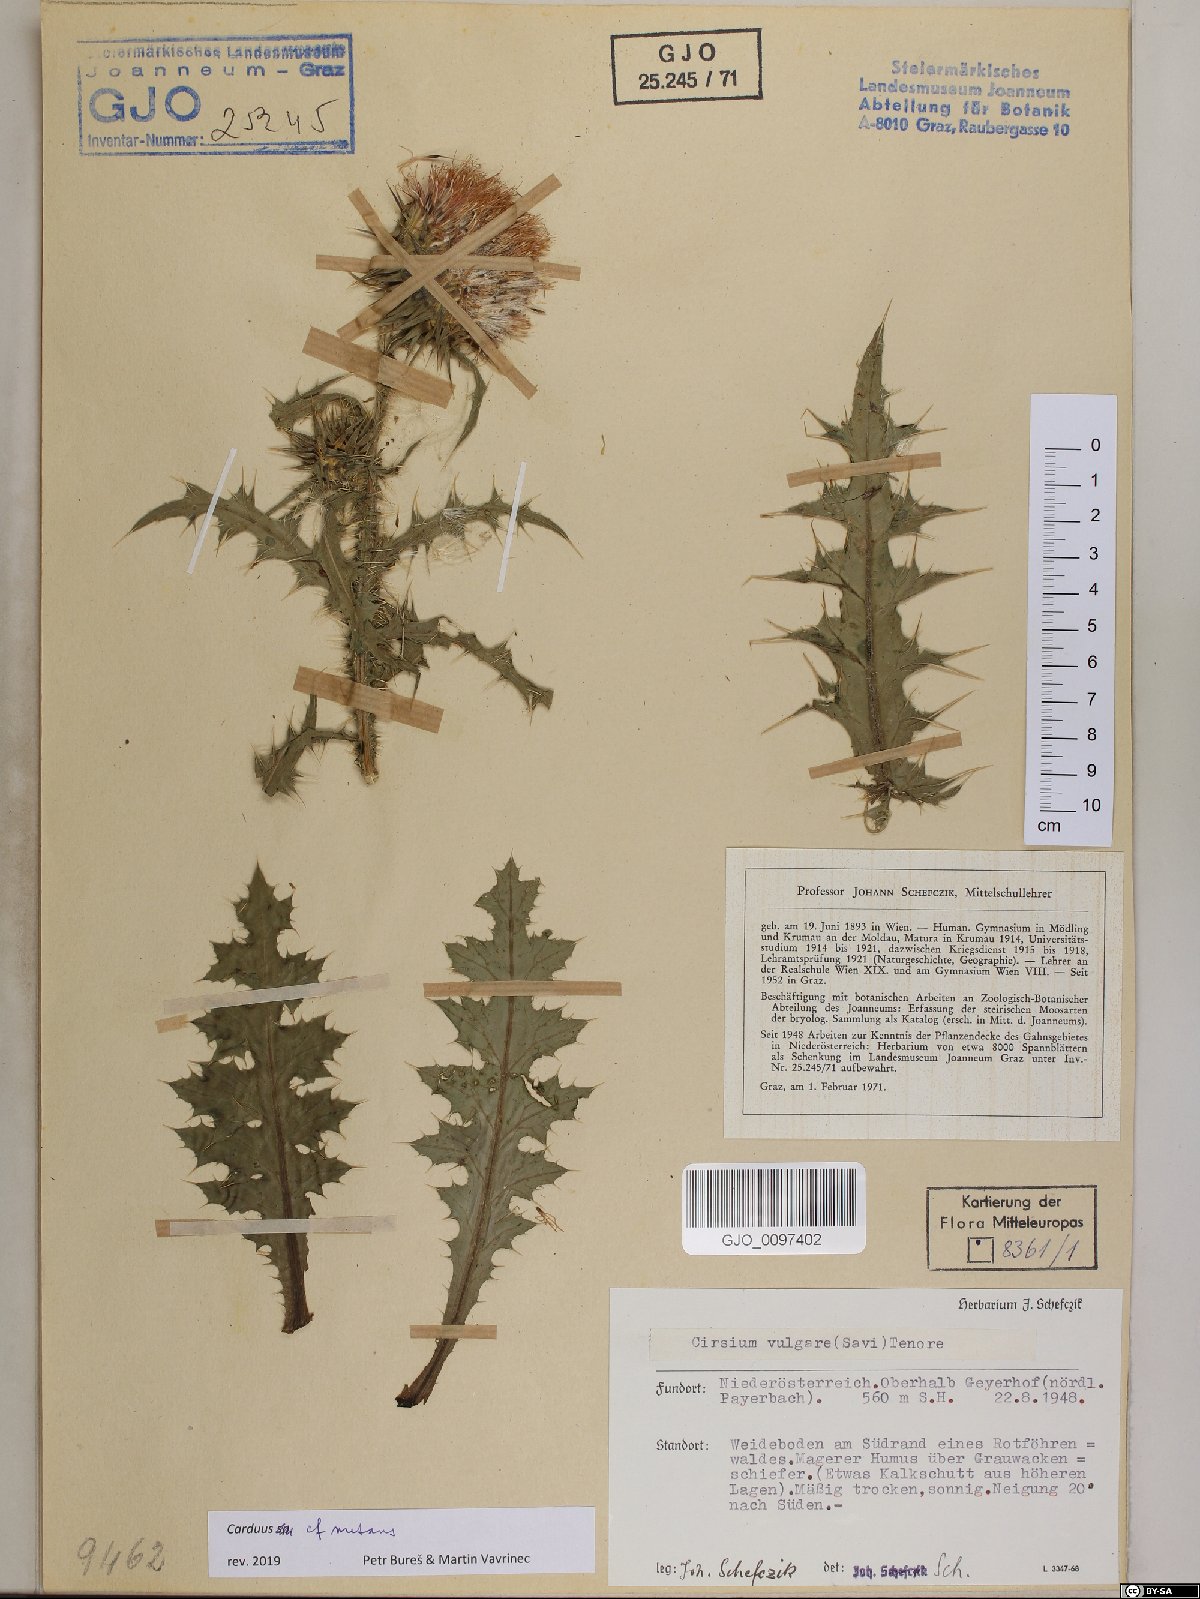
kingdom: Plantae
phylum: Tracheophyta
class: Magnoliopsida
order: Asterales
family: Asteraceae
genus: Carduus
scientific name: Carduus nutans
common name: Musk thistle
